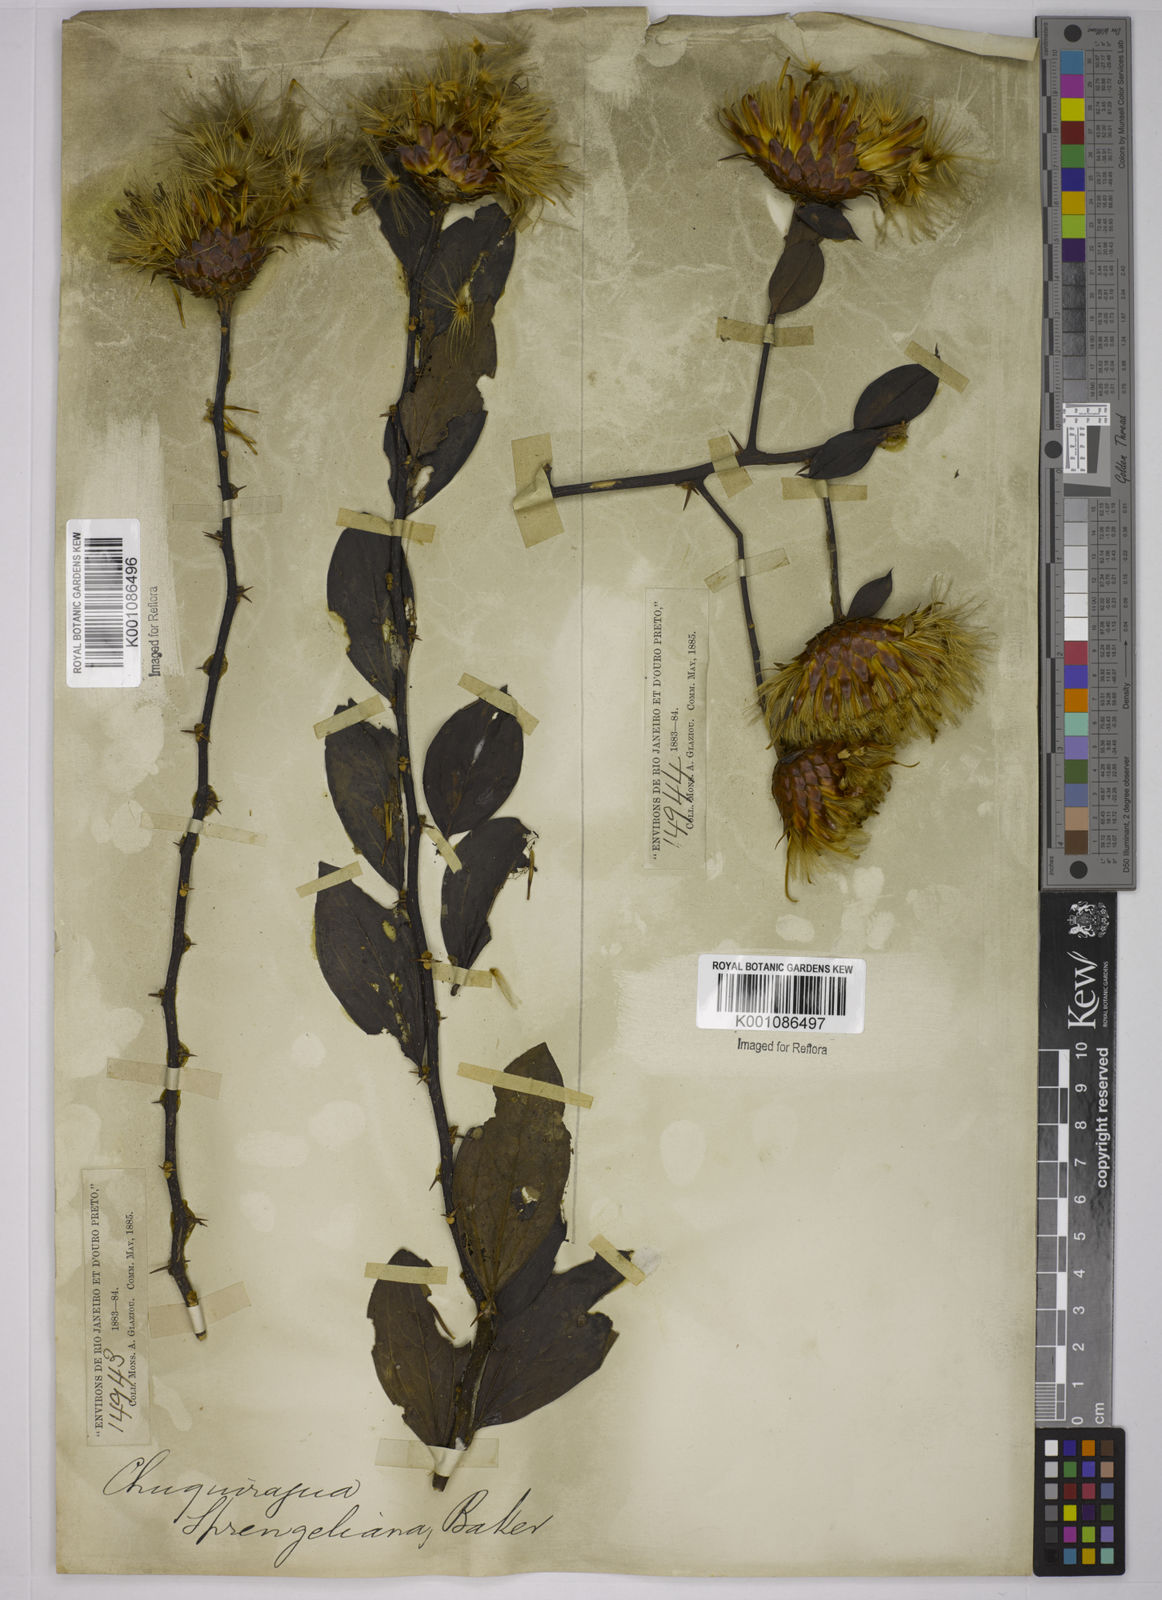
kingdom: Plantae
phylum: Tracheophyta
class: Magnoliopsida
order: Asterales
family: Asteraceae
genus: Dasyphyllum
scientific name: Dasyphyllum sprengelianum
